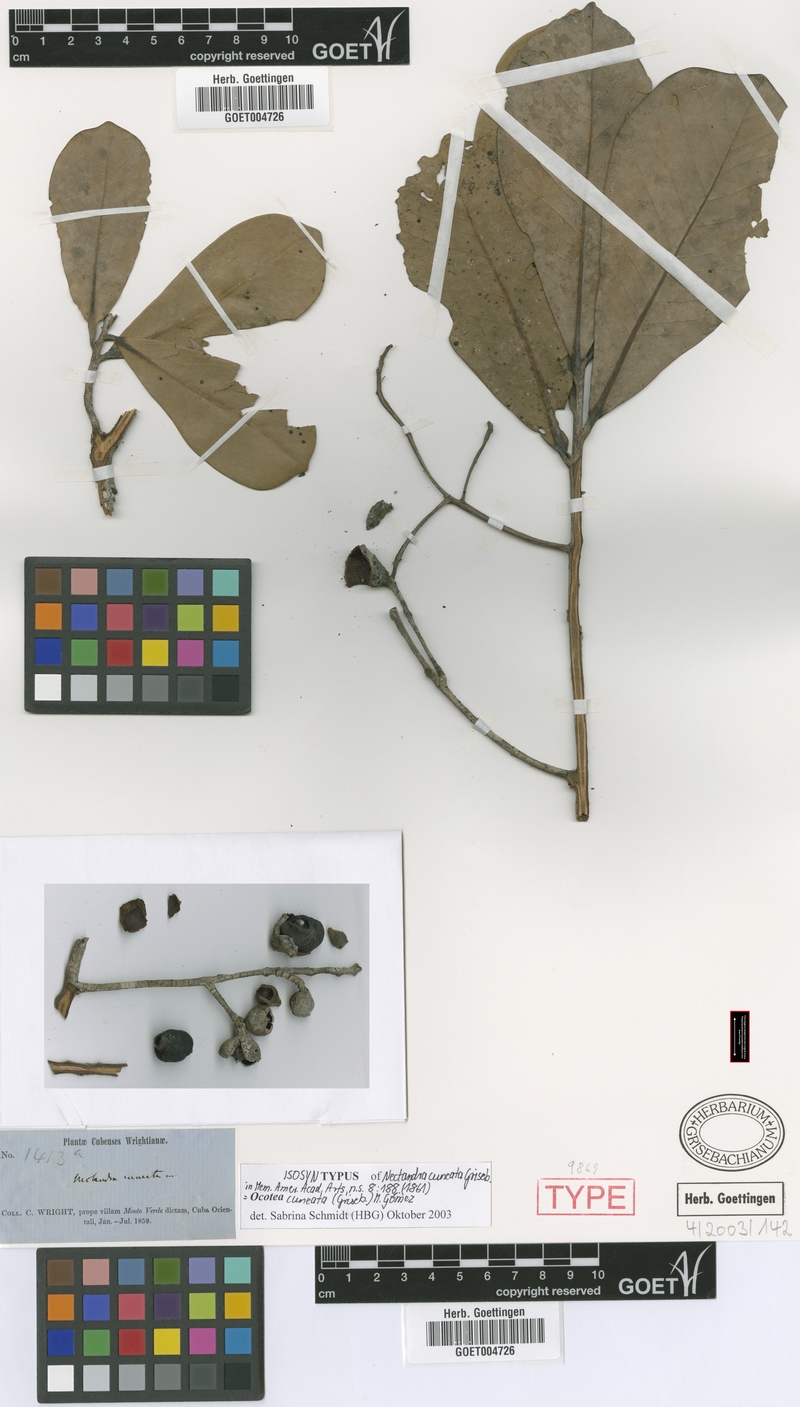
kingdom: Plantae
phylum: Tracheophyta
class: Magnoliopsida
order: Laurales
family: Lauraceae
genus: Ocotea
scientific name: Ocotea cuneata
